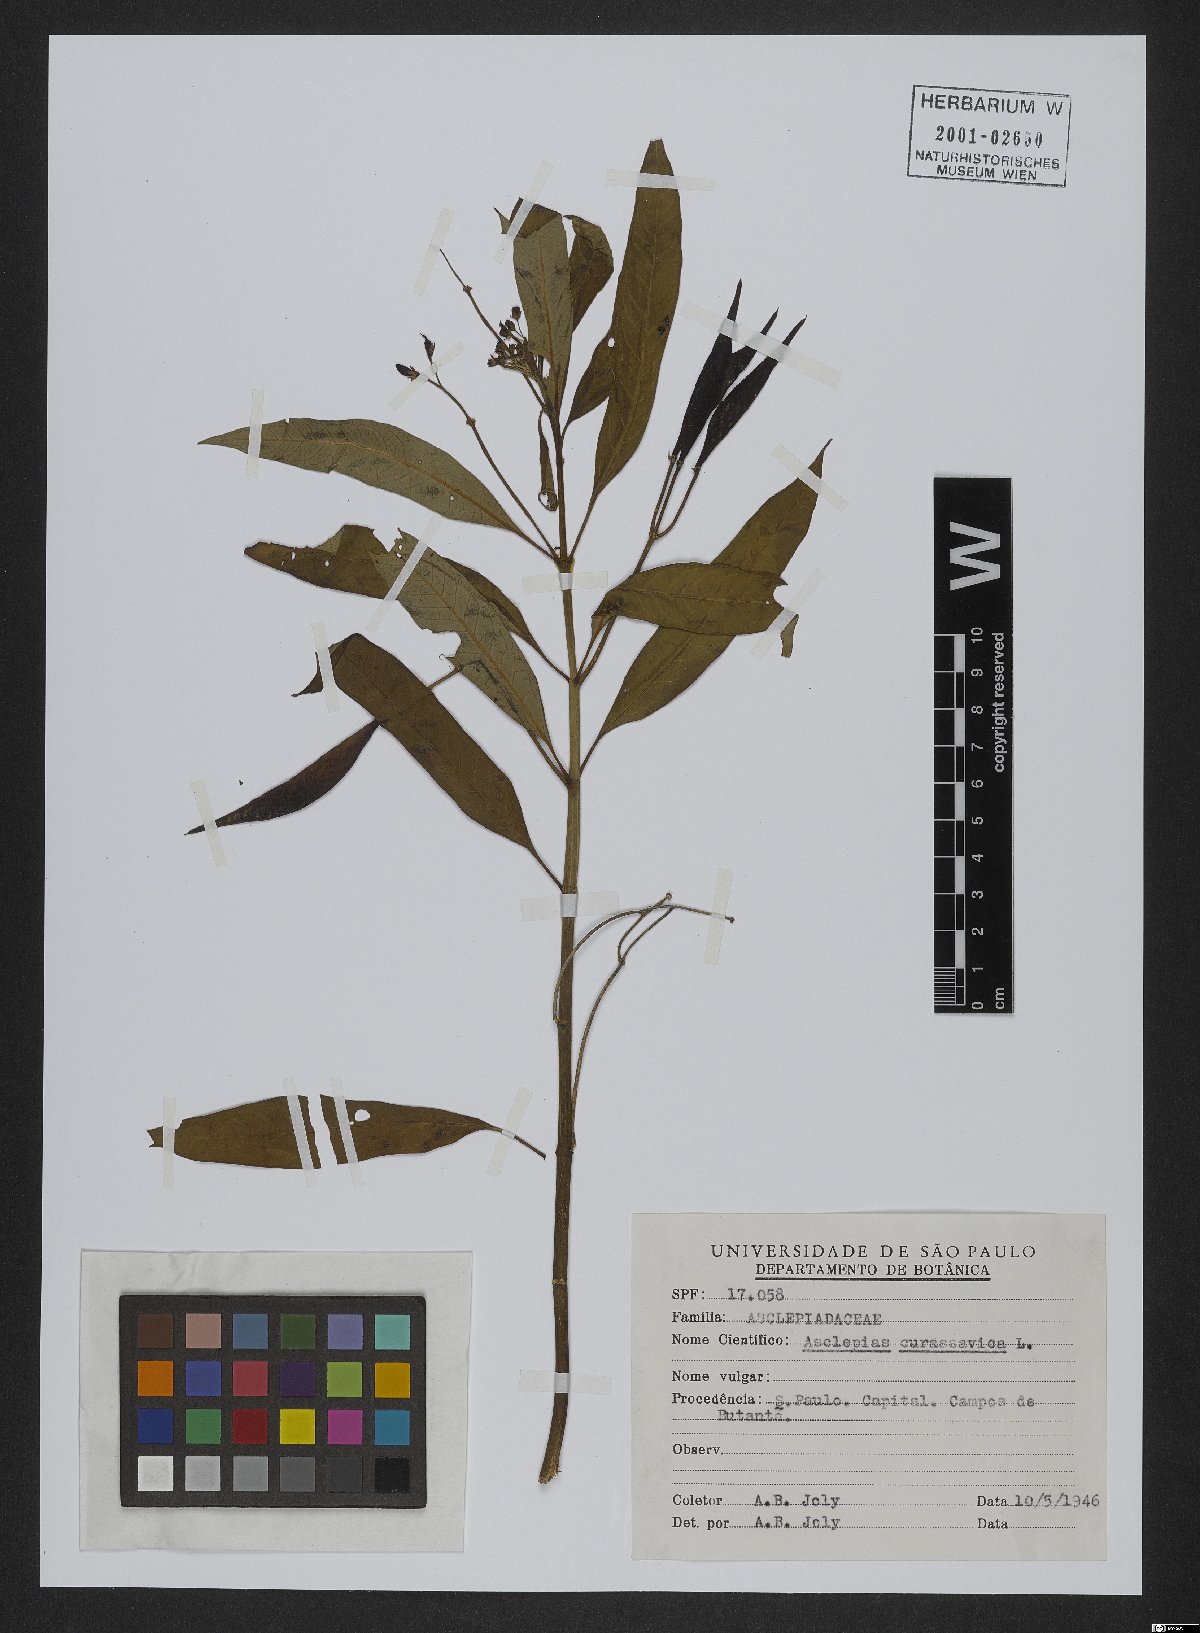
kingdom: Plantae
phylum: Tracheophyta
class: Magnoliopsida
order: Gentianales
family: Apocynaceae
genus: Asclepias
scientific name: Asclepias curassavica
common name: Bloodflower
